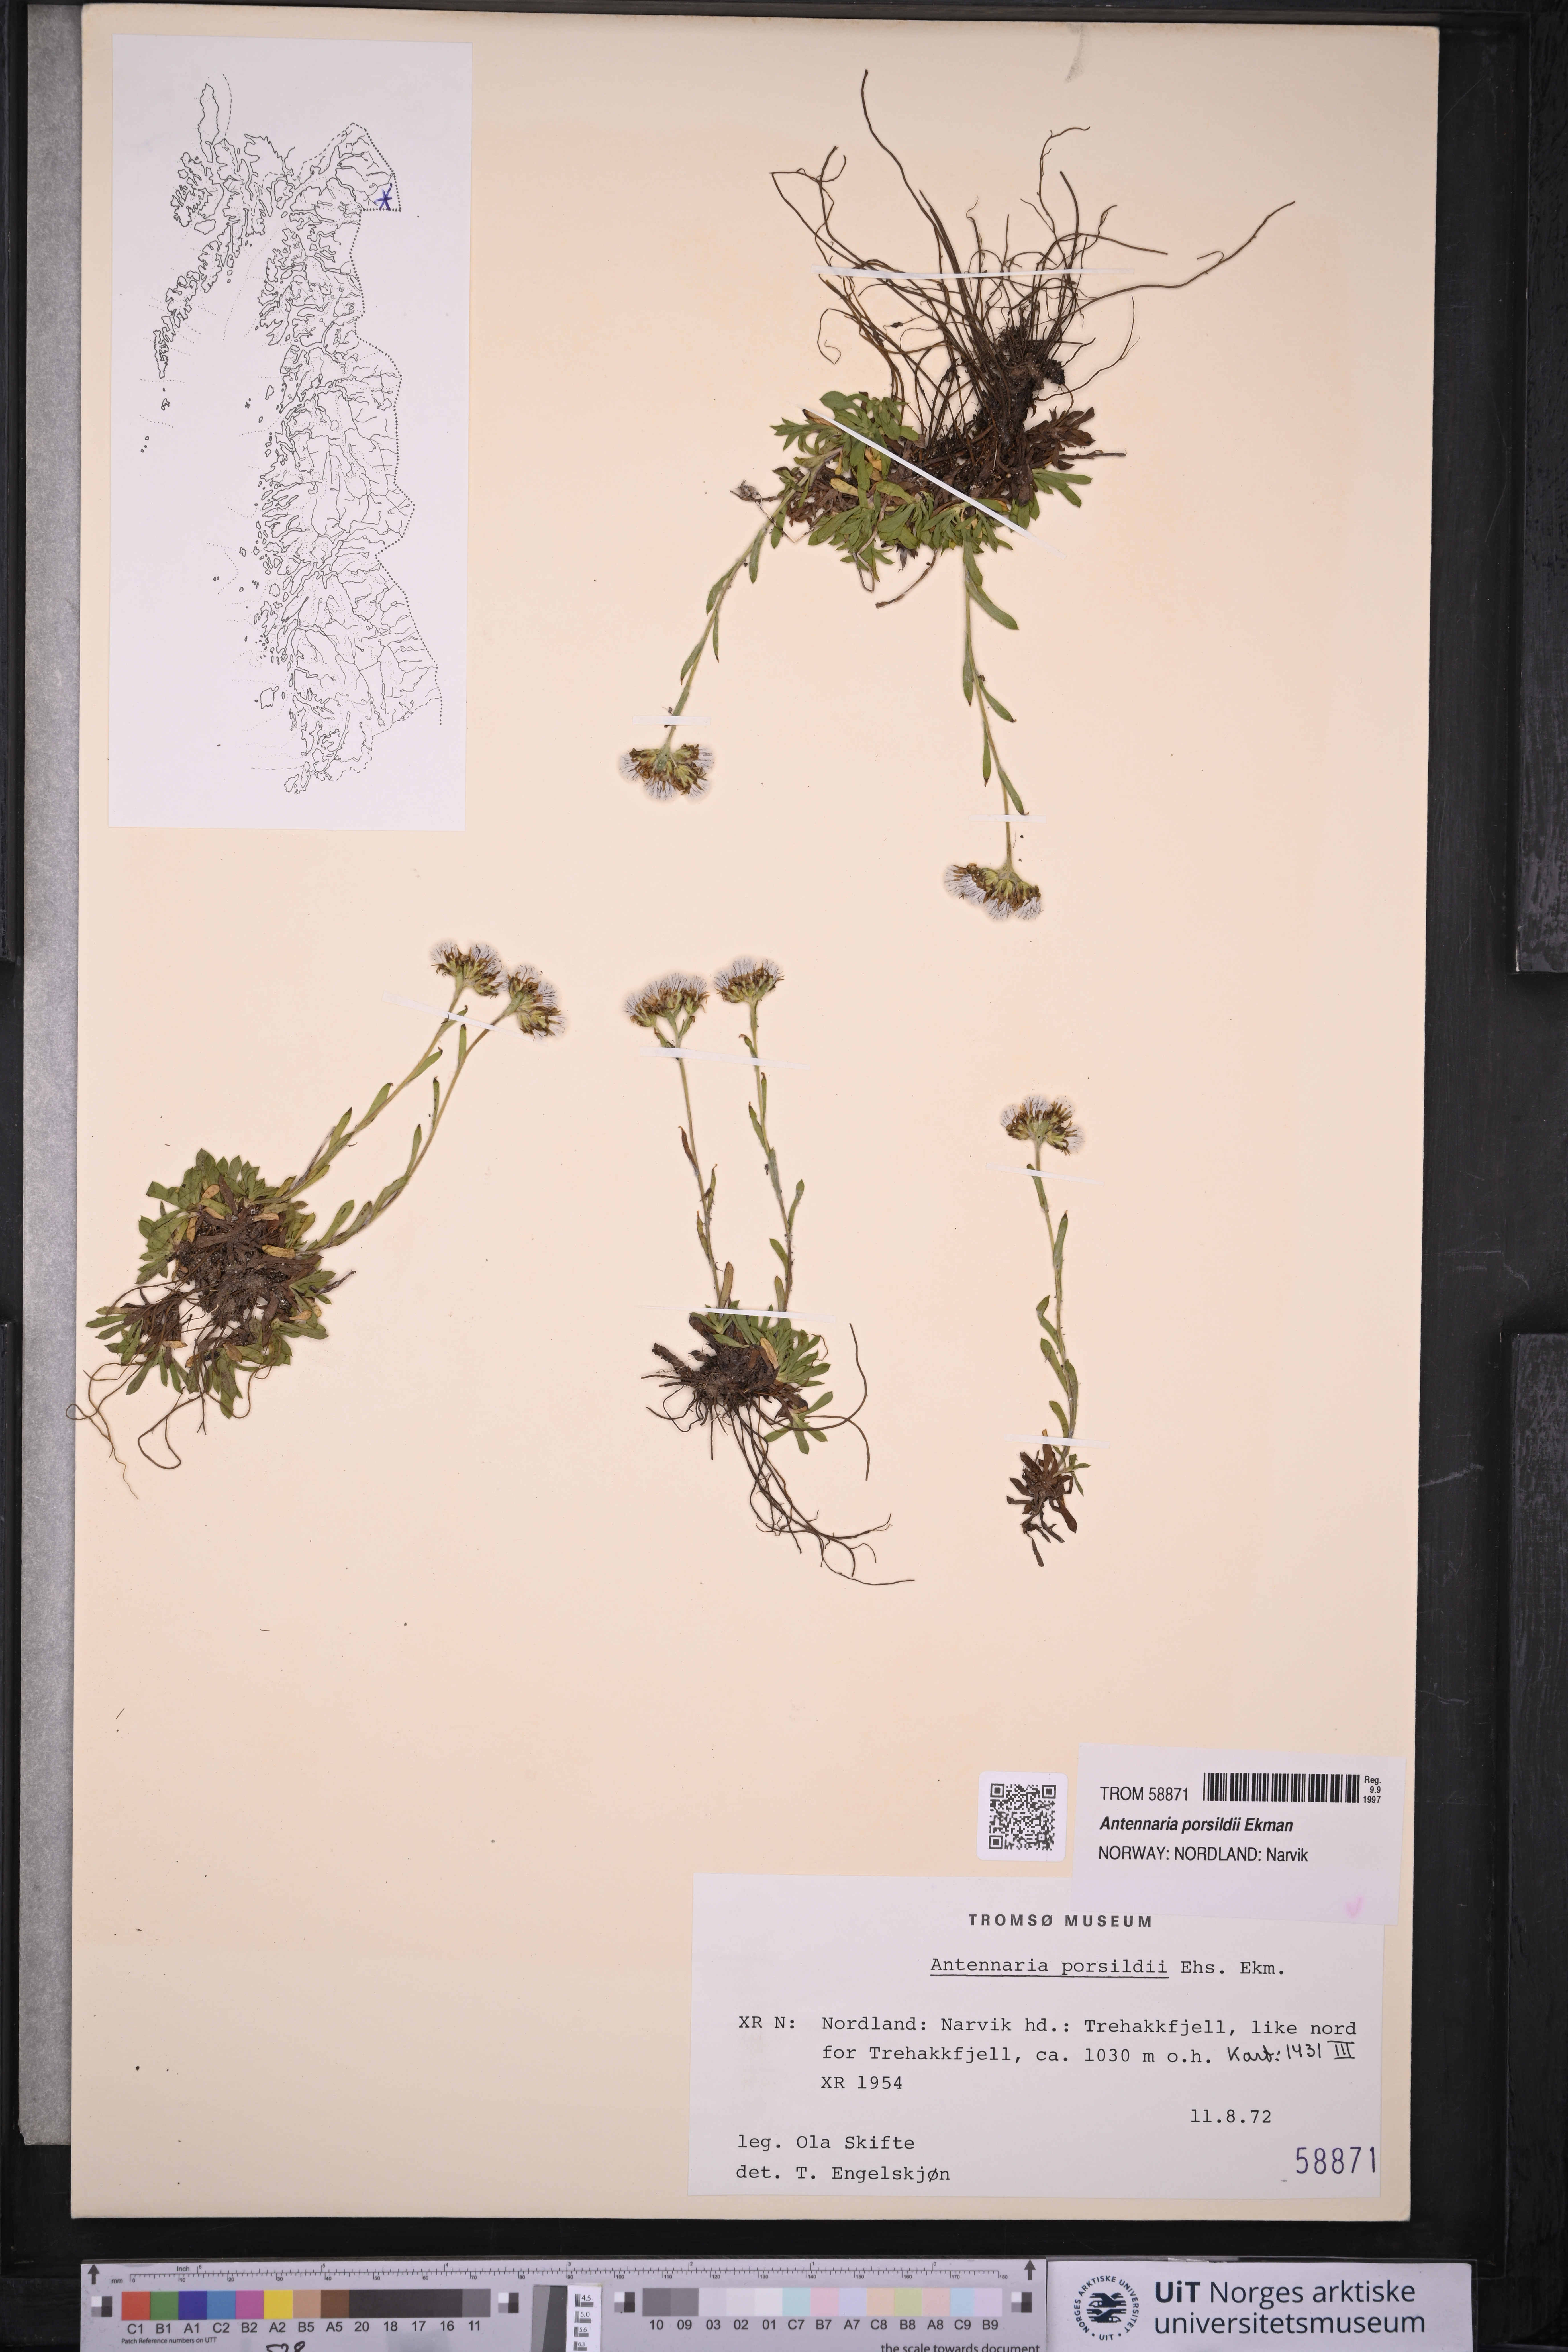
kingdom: Plantae
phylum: Tracheophyta
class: Magnoliopsida
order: Asterales
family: Asteraceae
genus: Antennaria
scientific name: Antennaria porsildii
